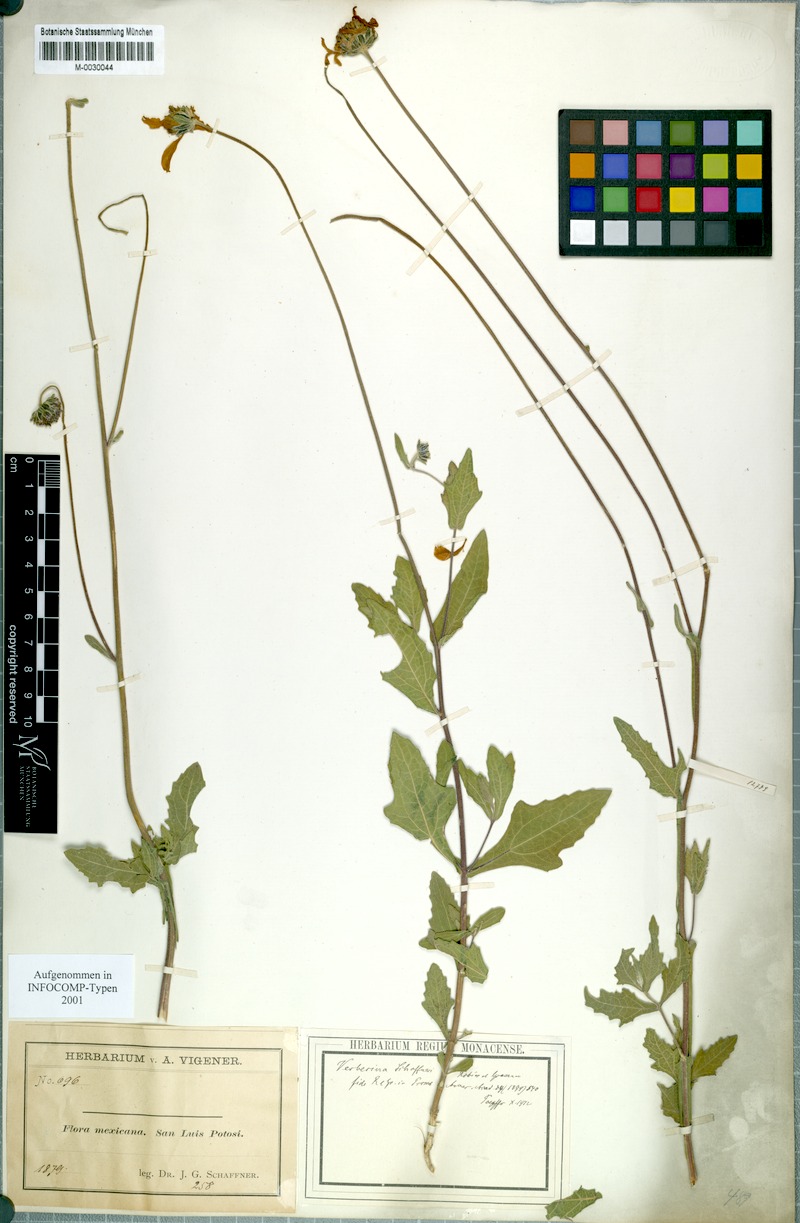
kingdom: Plantae
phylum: Tracheophyta
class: Magnoliopsida
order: Asterales
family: Asteraceae
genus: Verbesina
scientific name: Verbesina pedunculosa
